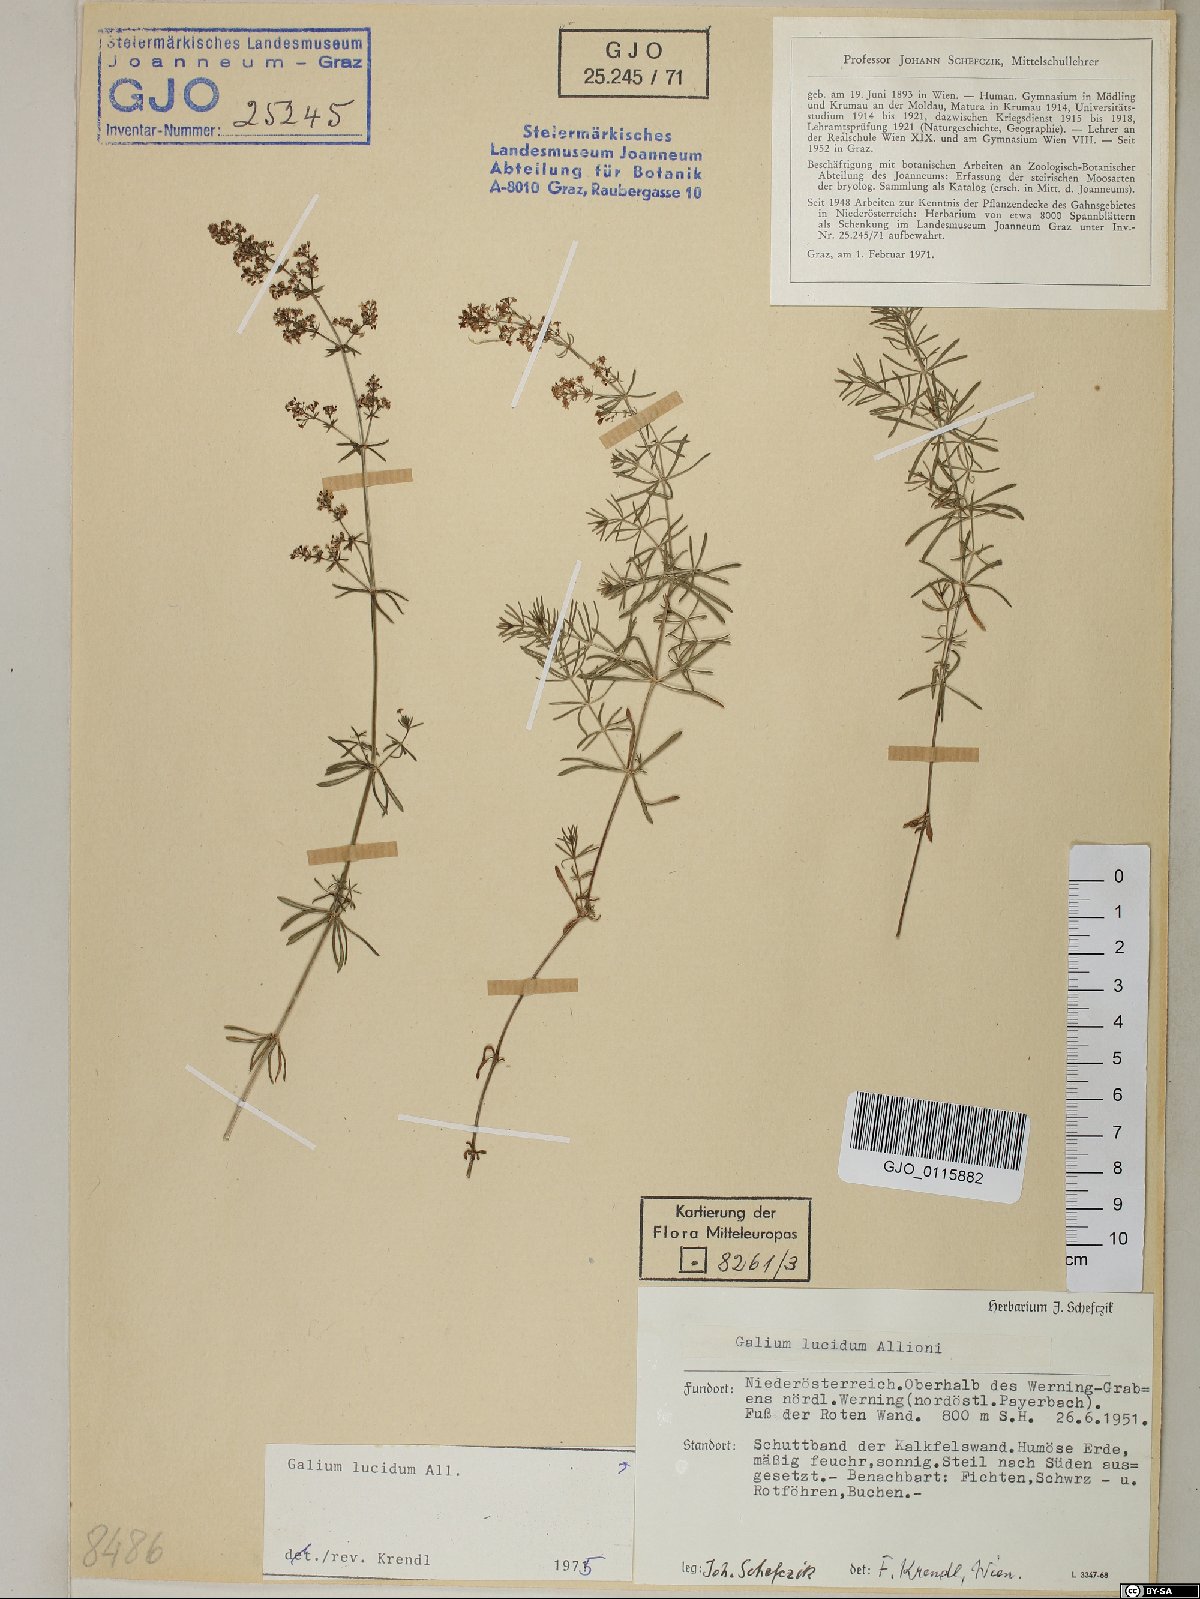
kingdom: Plantae
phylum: Tracheophyta
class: Magnoliopsida
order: Gentianales
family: Rubiaceae
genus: Galium
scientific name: Galium lucidum
